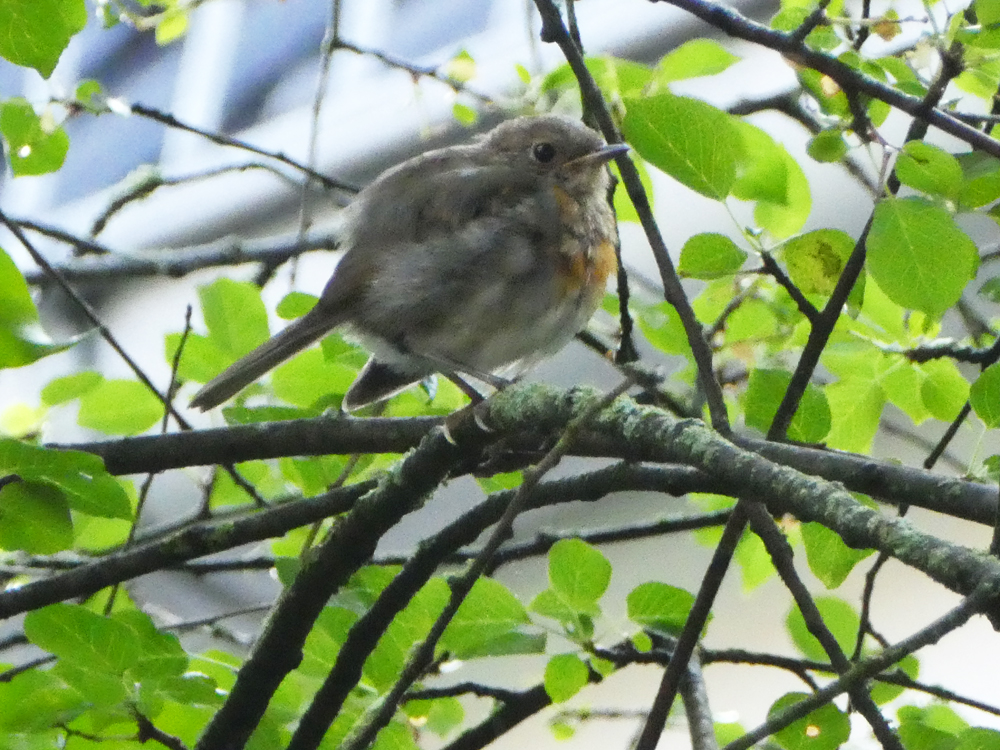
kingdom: Animalia
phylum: Chordata
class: Aves
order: Passeriformes
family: Muscicapidae
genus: Erithacus
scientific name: Erithacus rubecula
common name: European robin
